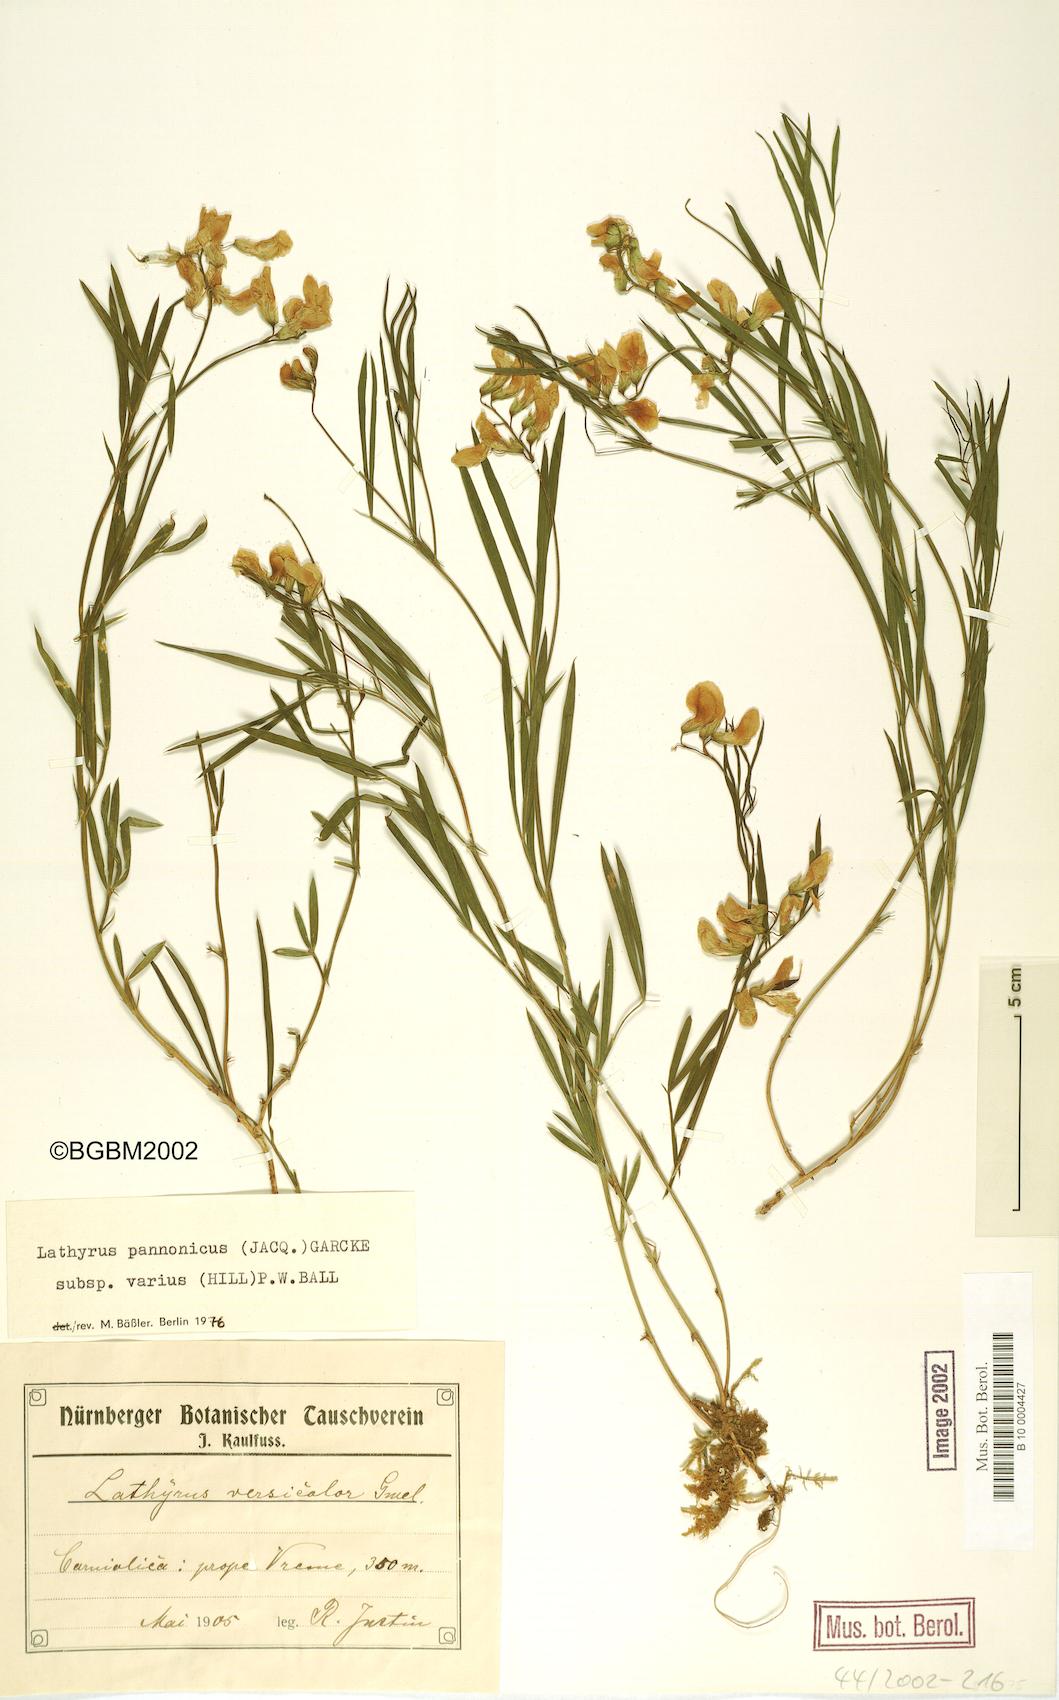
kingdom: Plantae
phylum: Tracheophyta
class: Magnoliopsida
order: Fabales
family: Fabaceae
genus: Lathyrus
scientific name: Lathyrus pannonicus
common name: Pea
